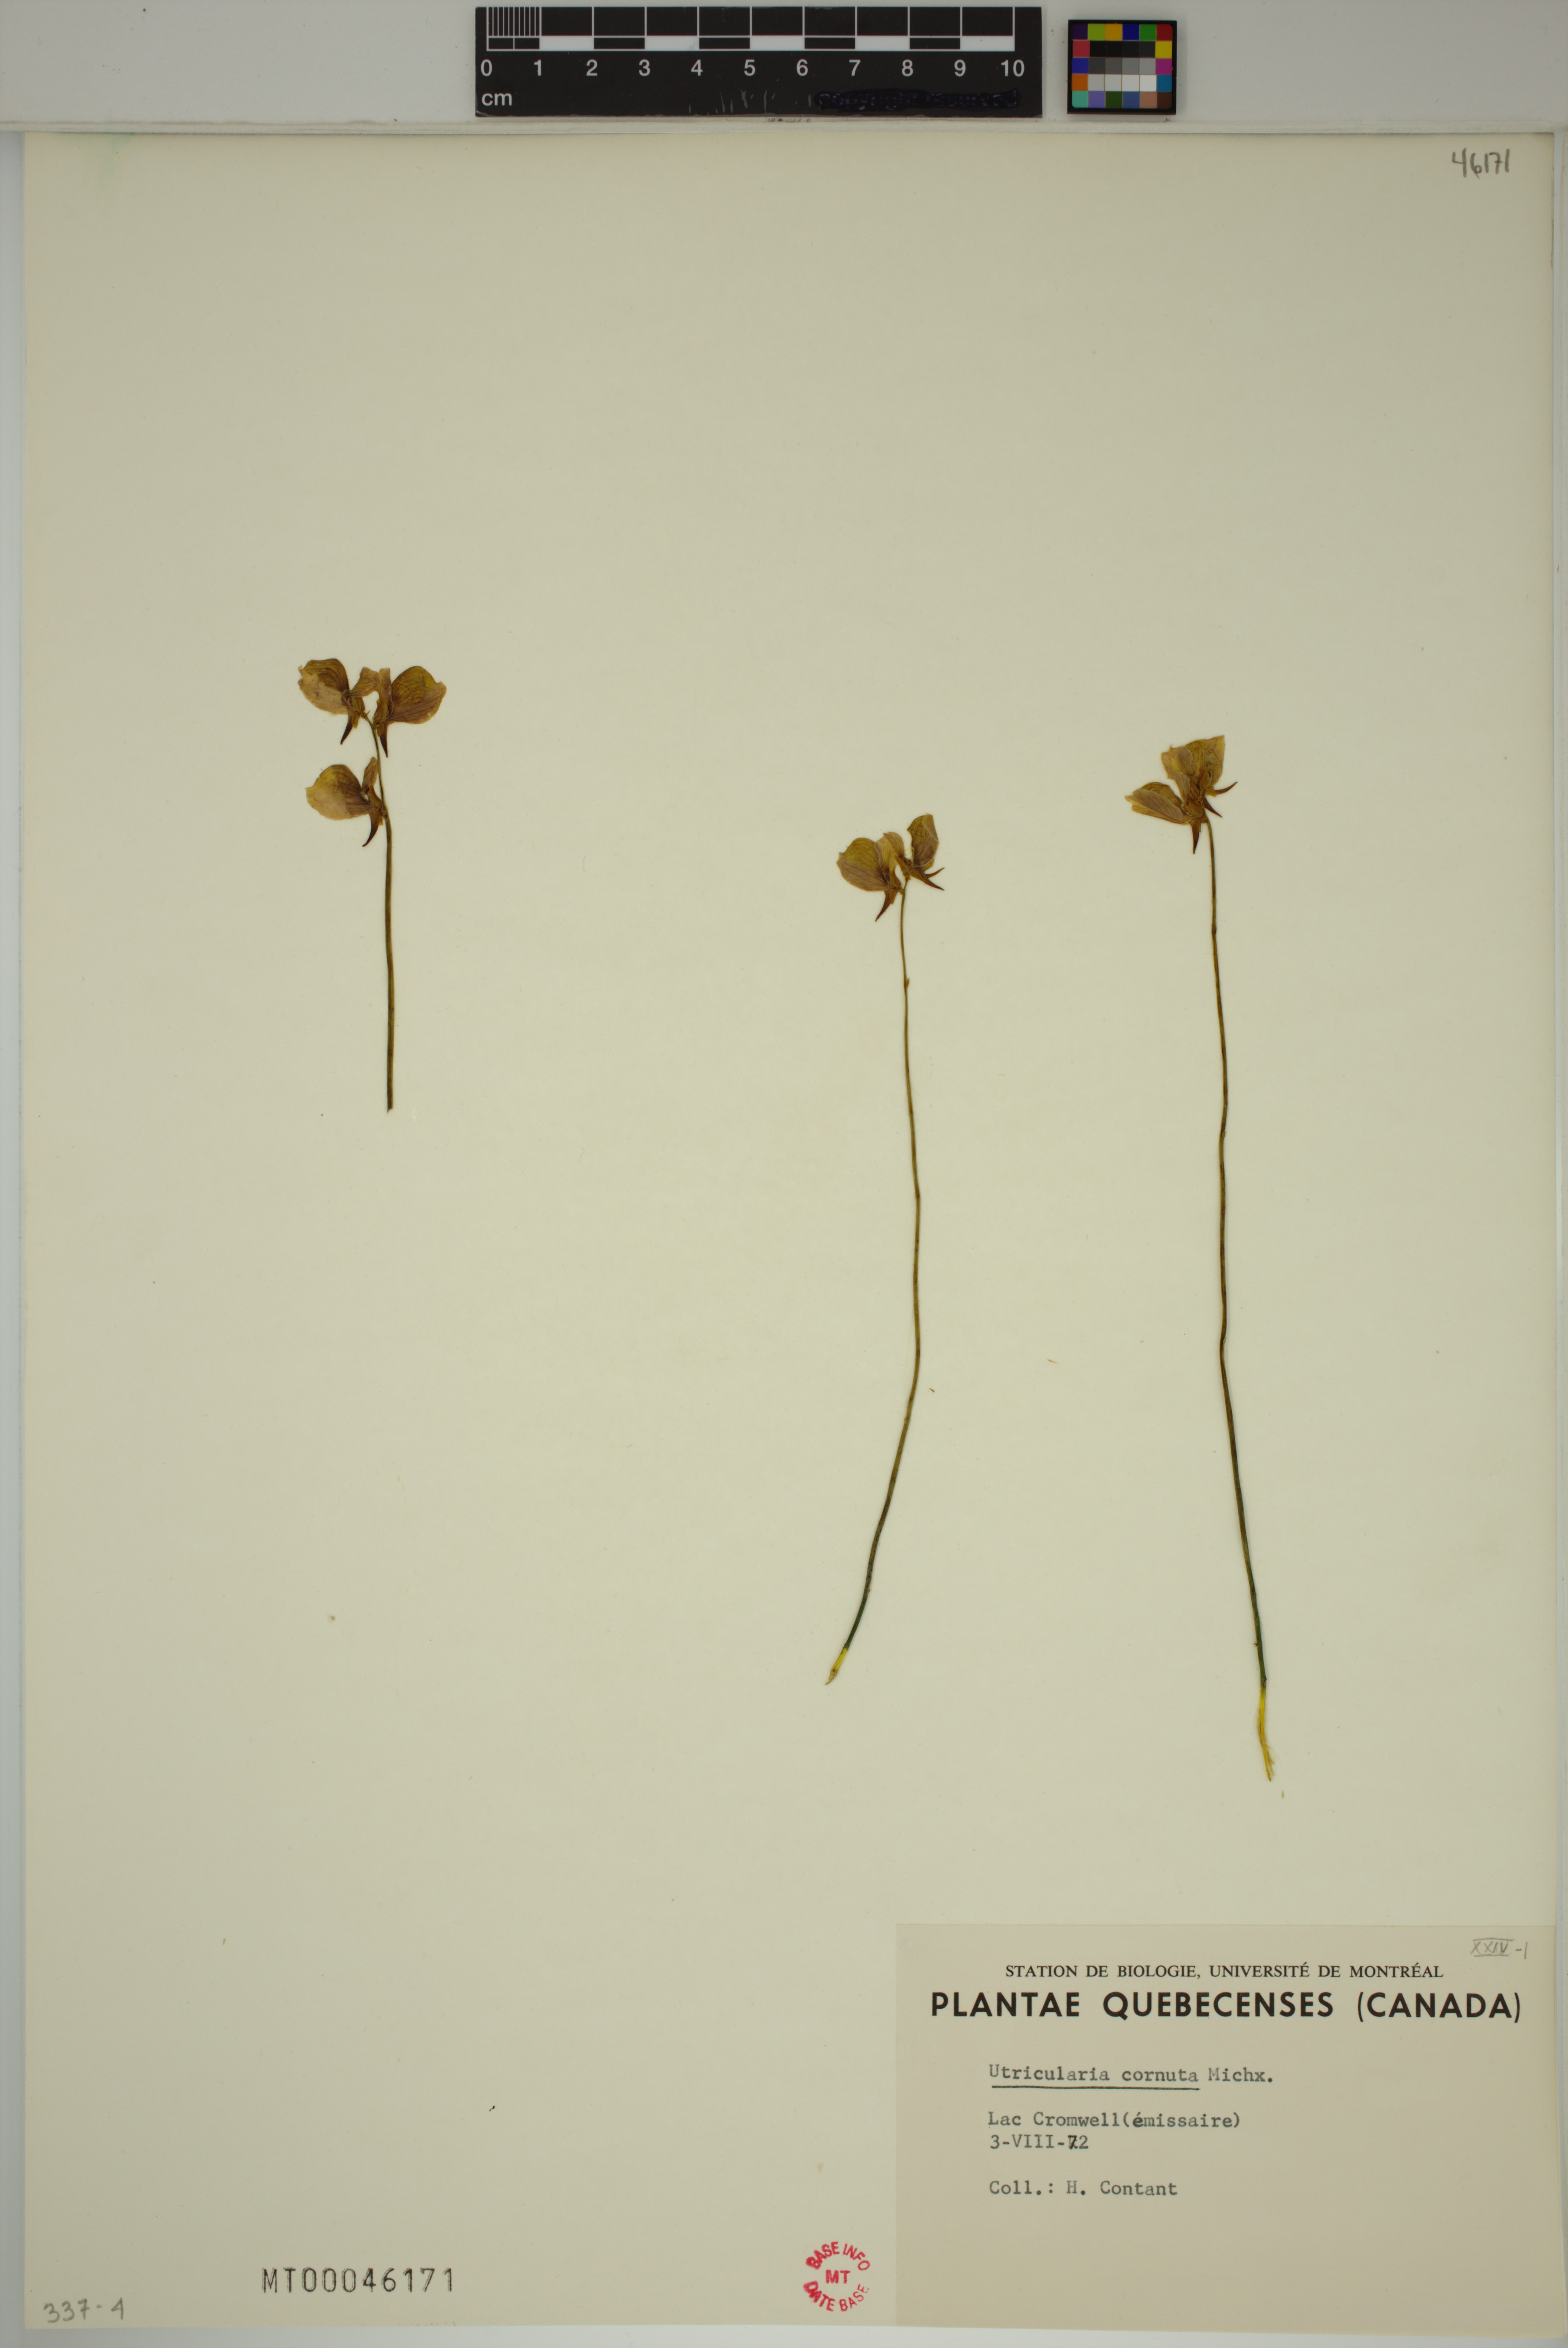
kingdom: Plantae
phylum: Tracheophyta
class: Magnoliopsida
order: Lamiales
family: Lentibulariaceae
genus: Utricularia
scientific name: Utricularia cornuta
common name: Horned bladderwort
